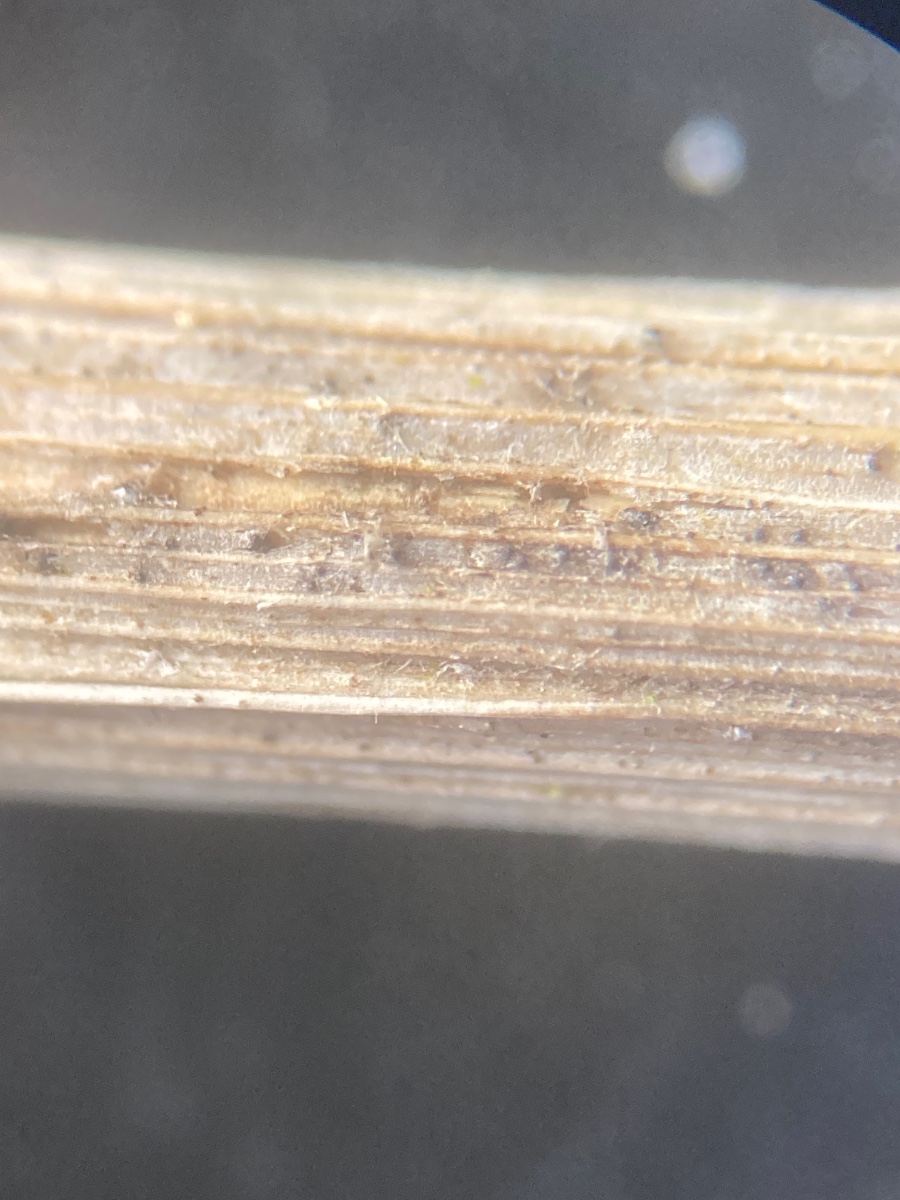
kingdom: Fungi
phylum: Ascomycota
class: Dothideomycetes
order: Pleosporales
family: Phaeosphaeriaceae
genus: Phaeosphaeria
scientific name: Phaeosphaeria nigrans
